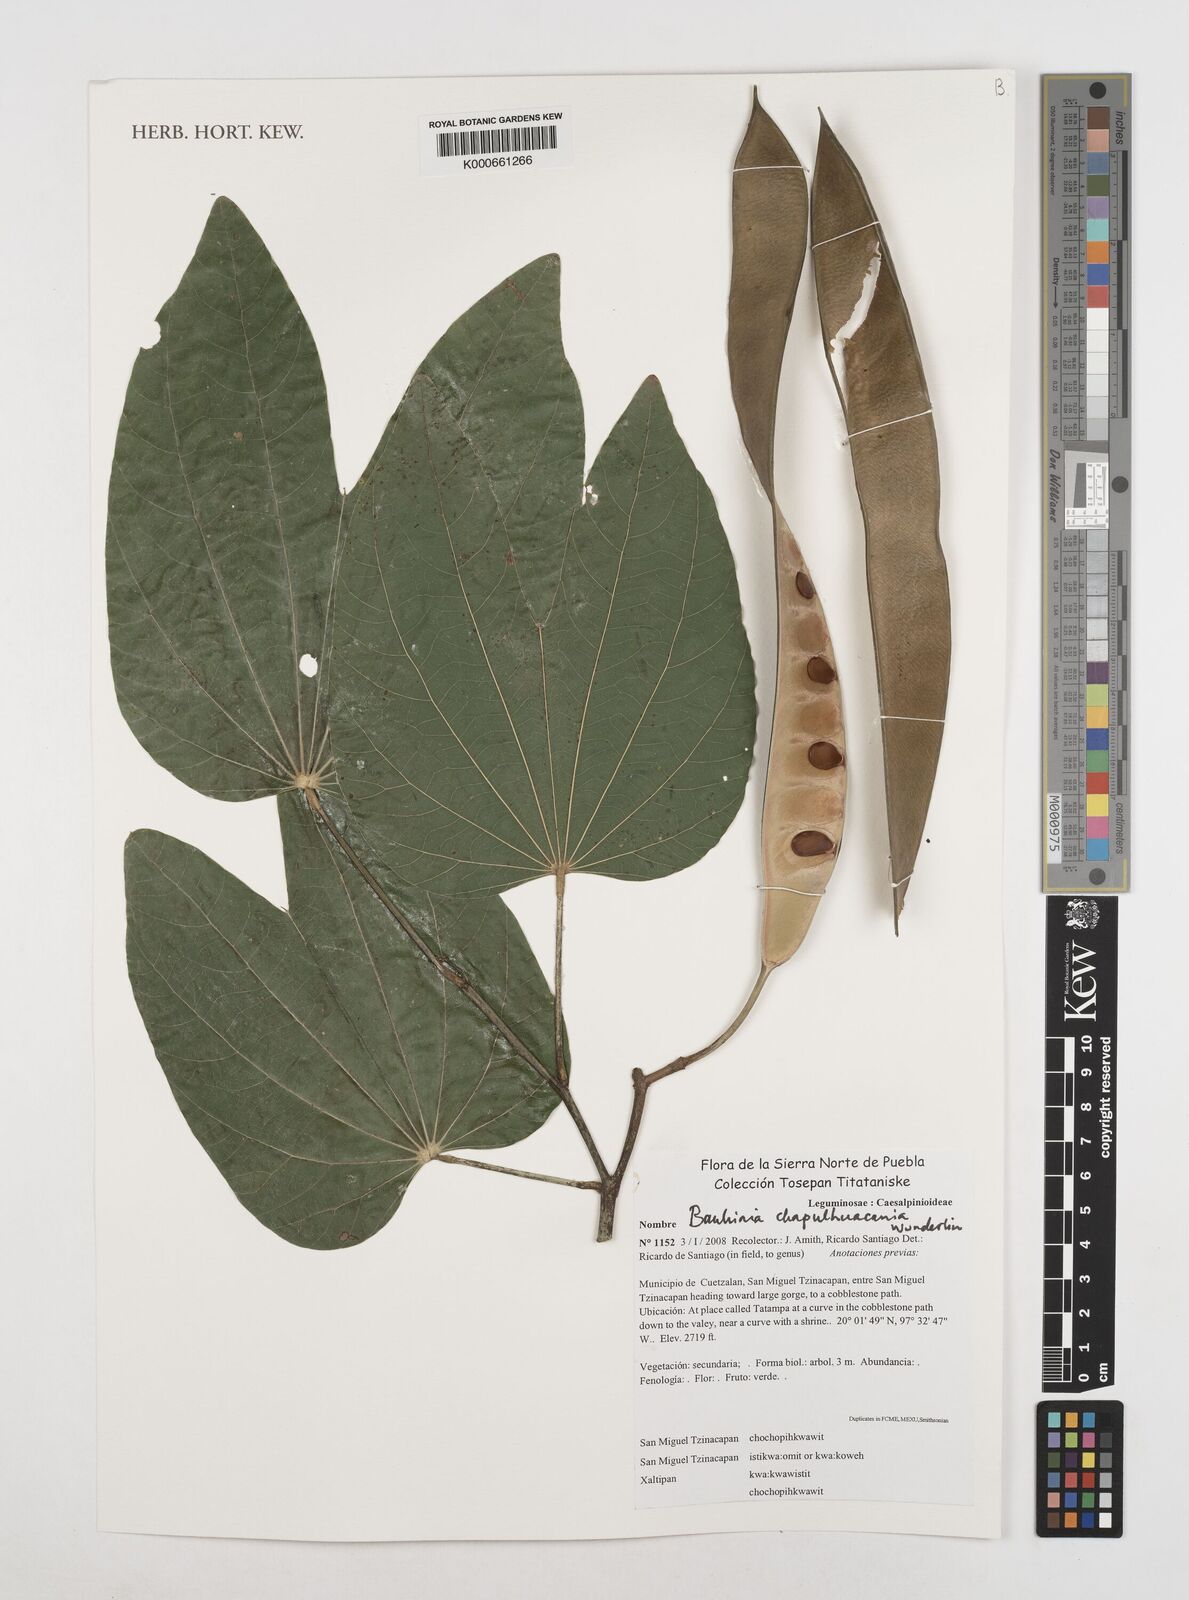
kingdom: Plantae
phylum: Tracheophyta
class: Magnoliopsida
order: Fabales
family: Fabaceae
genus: Bauhinia
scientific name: Bauhinia chapulhuacania
